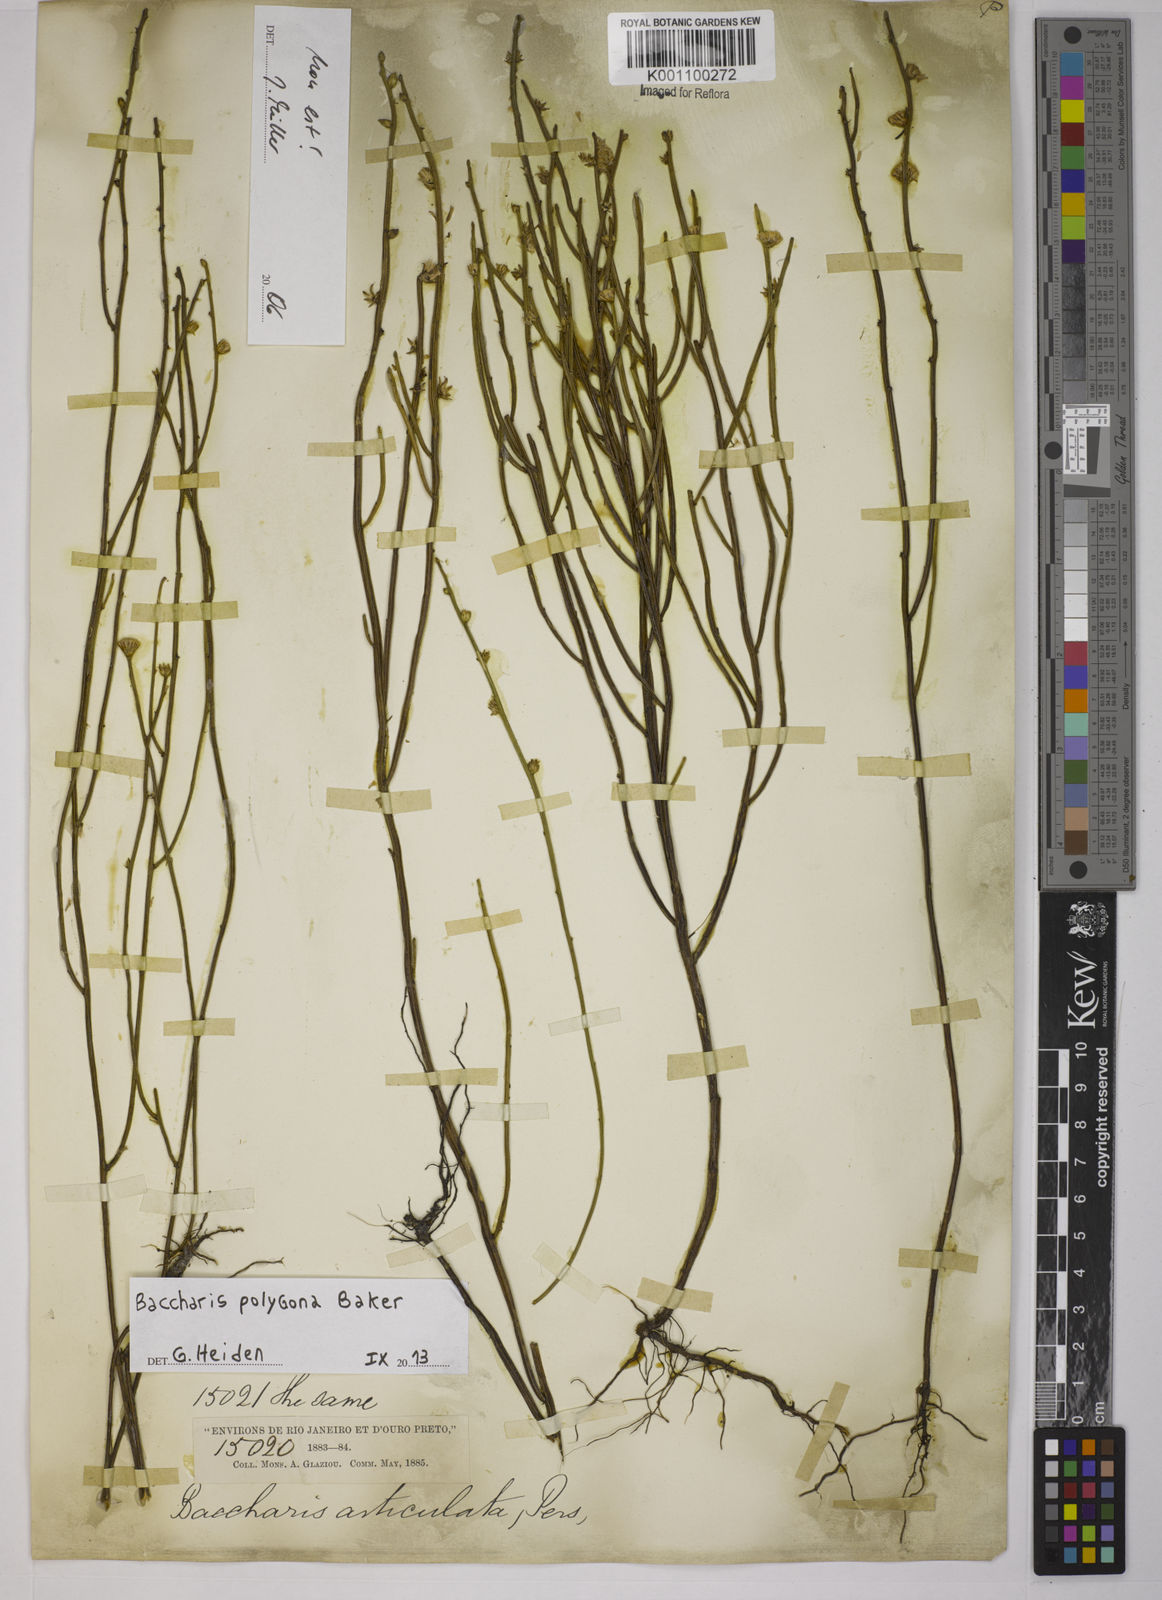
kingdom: Plantae
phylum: Tracheophyta
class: Magnoliopsida
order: Asterales
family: Asteraceae
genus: Baccharis
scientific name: Baccharis
